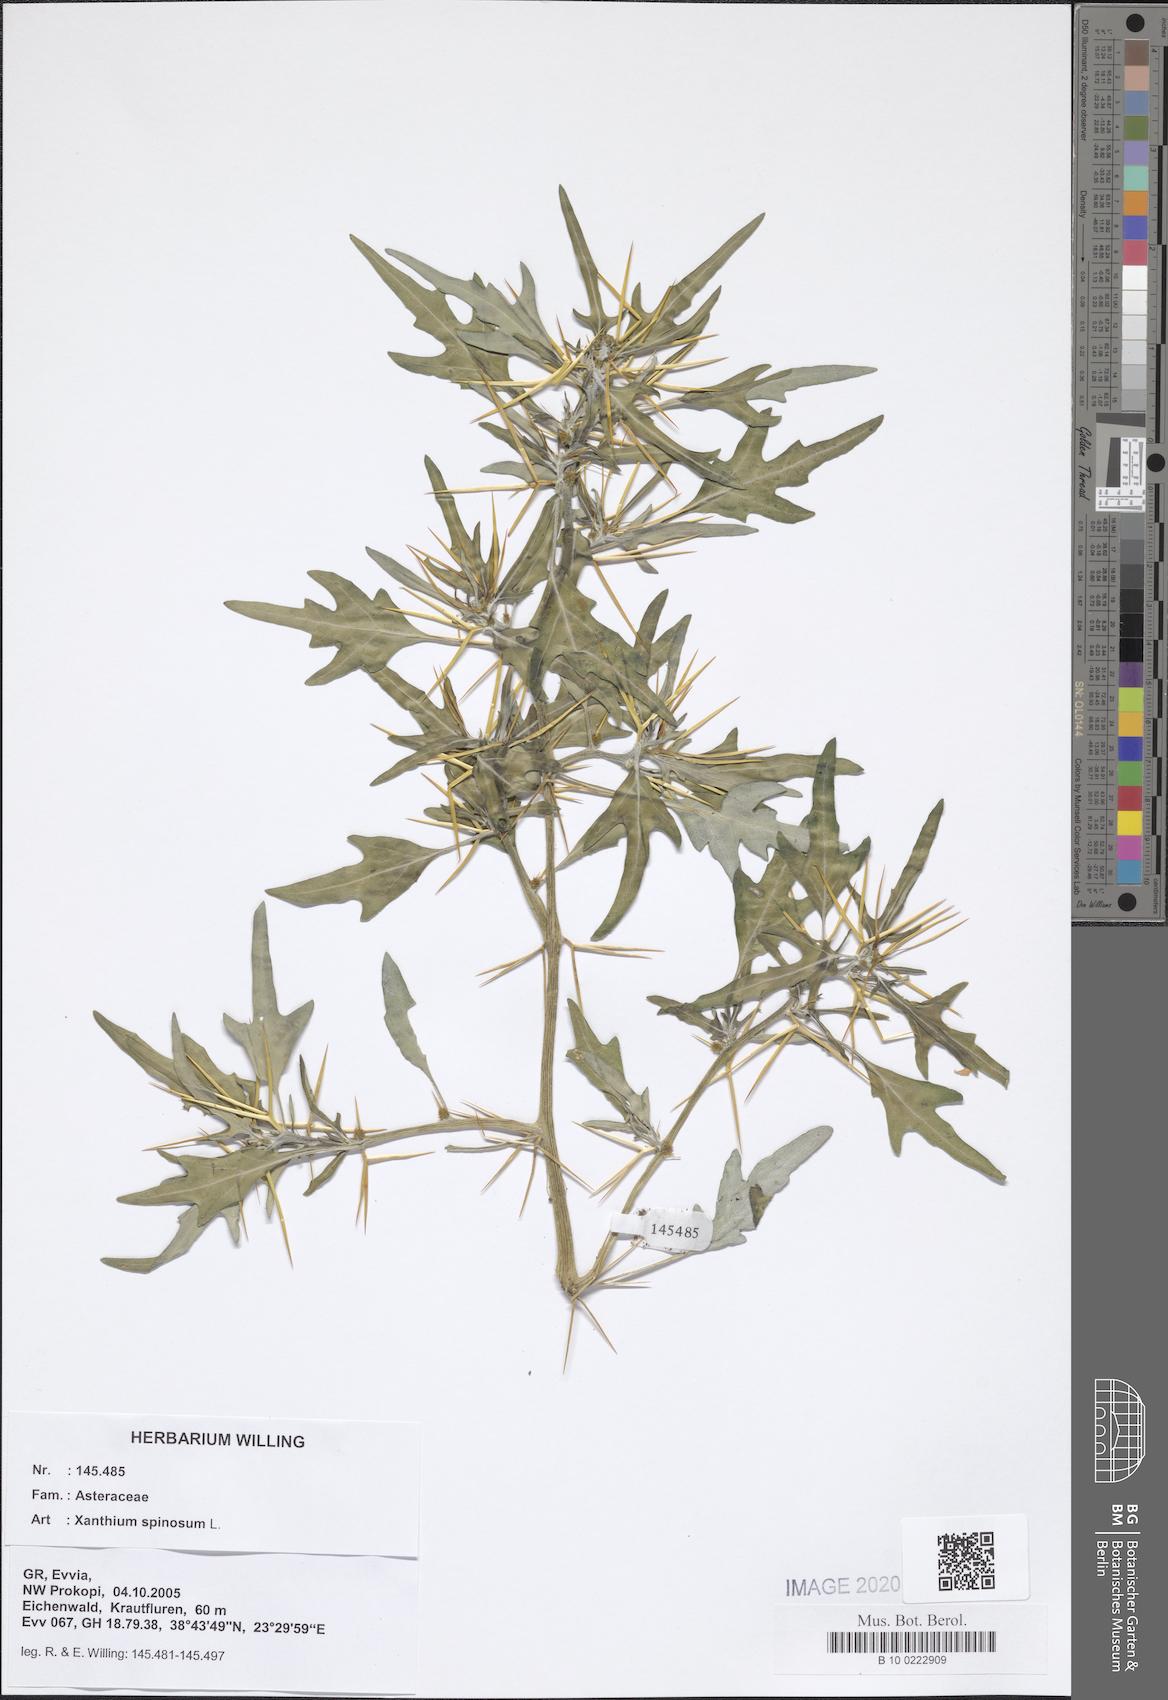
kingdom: Plantae
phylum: Tracheophyta
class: Magnoliopsida
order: Asterales
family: Asteraceae
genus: Xanthium
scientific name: Xanthium spinosum
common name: Spiny cocklebur
